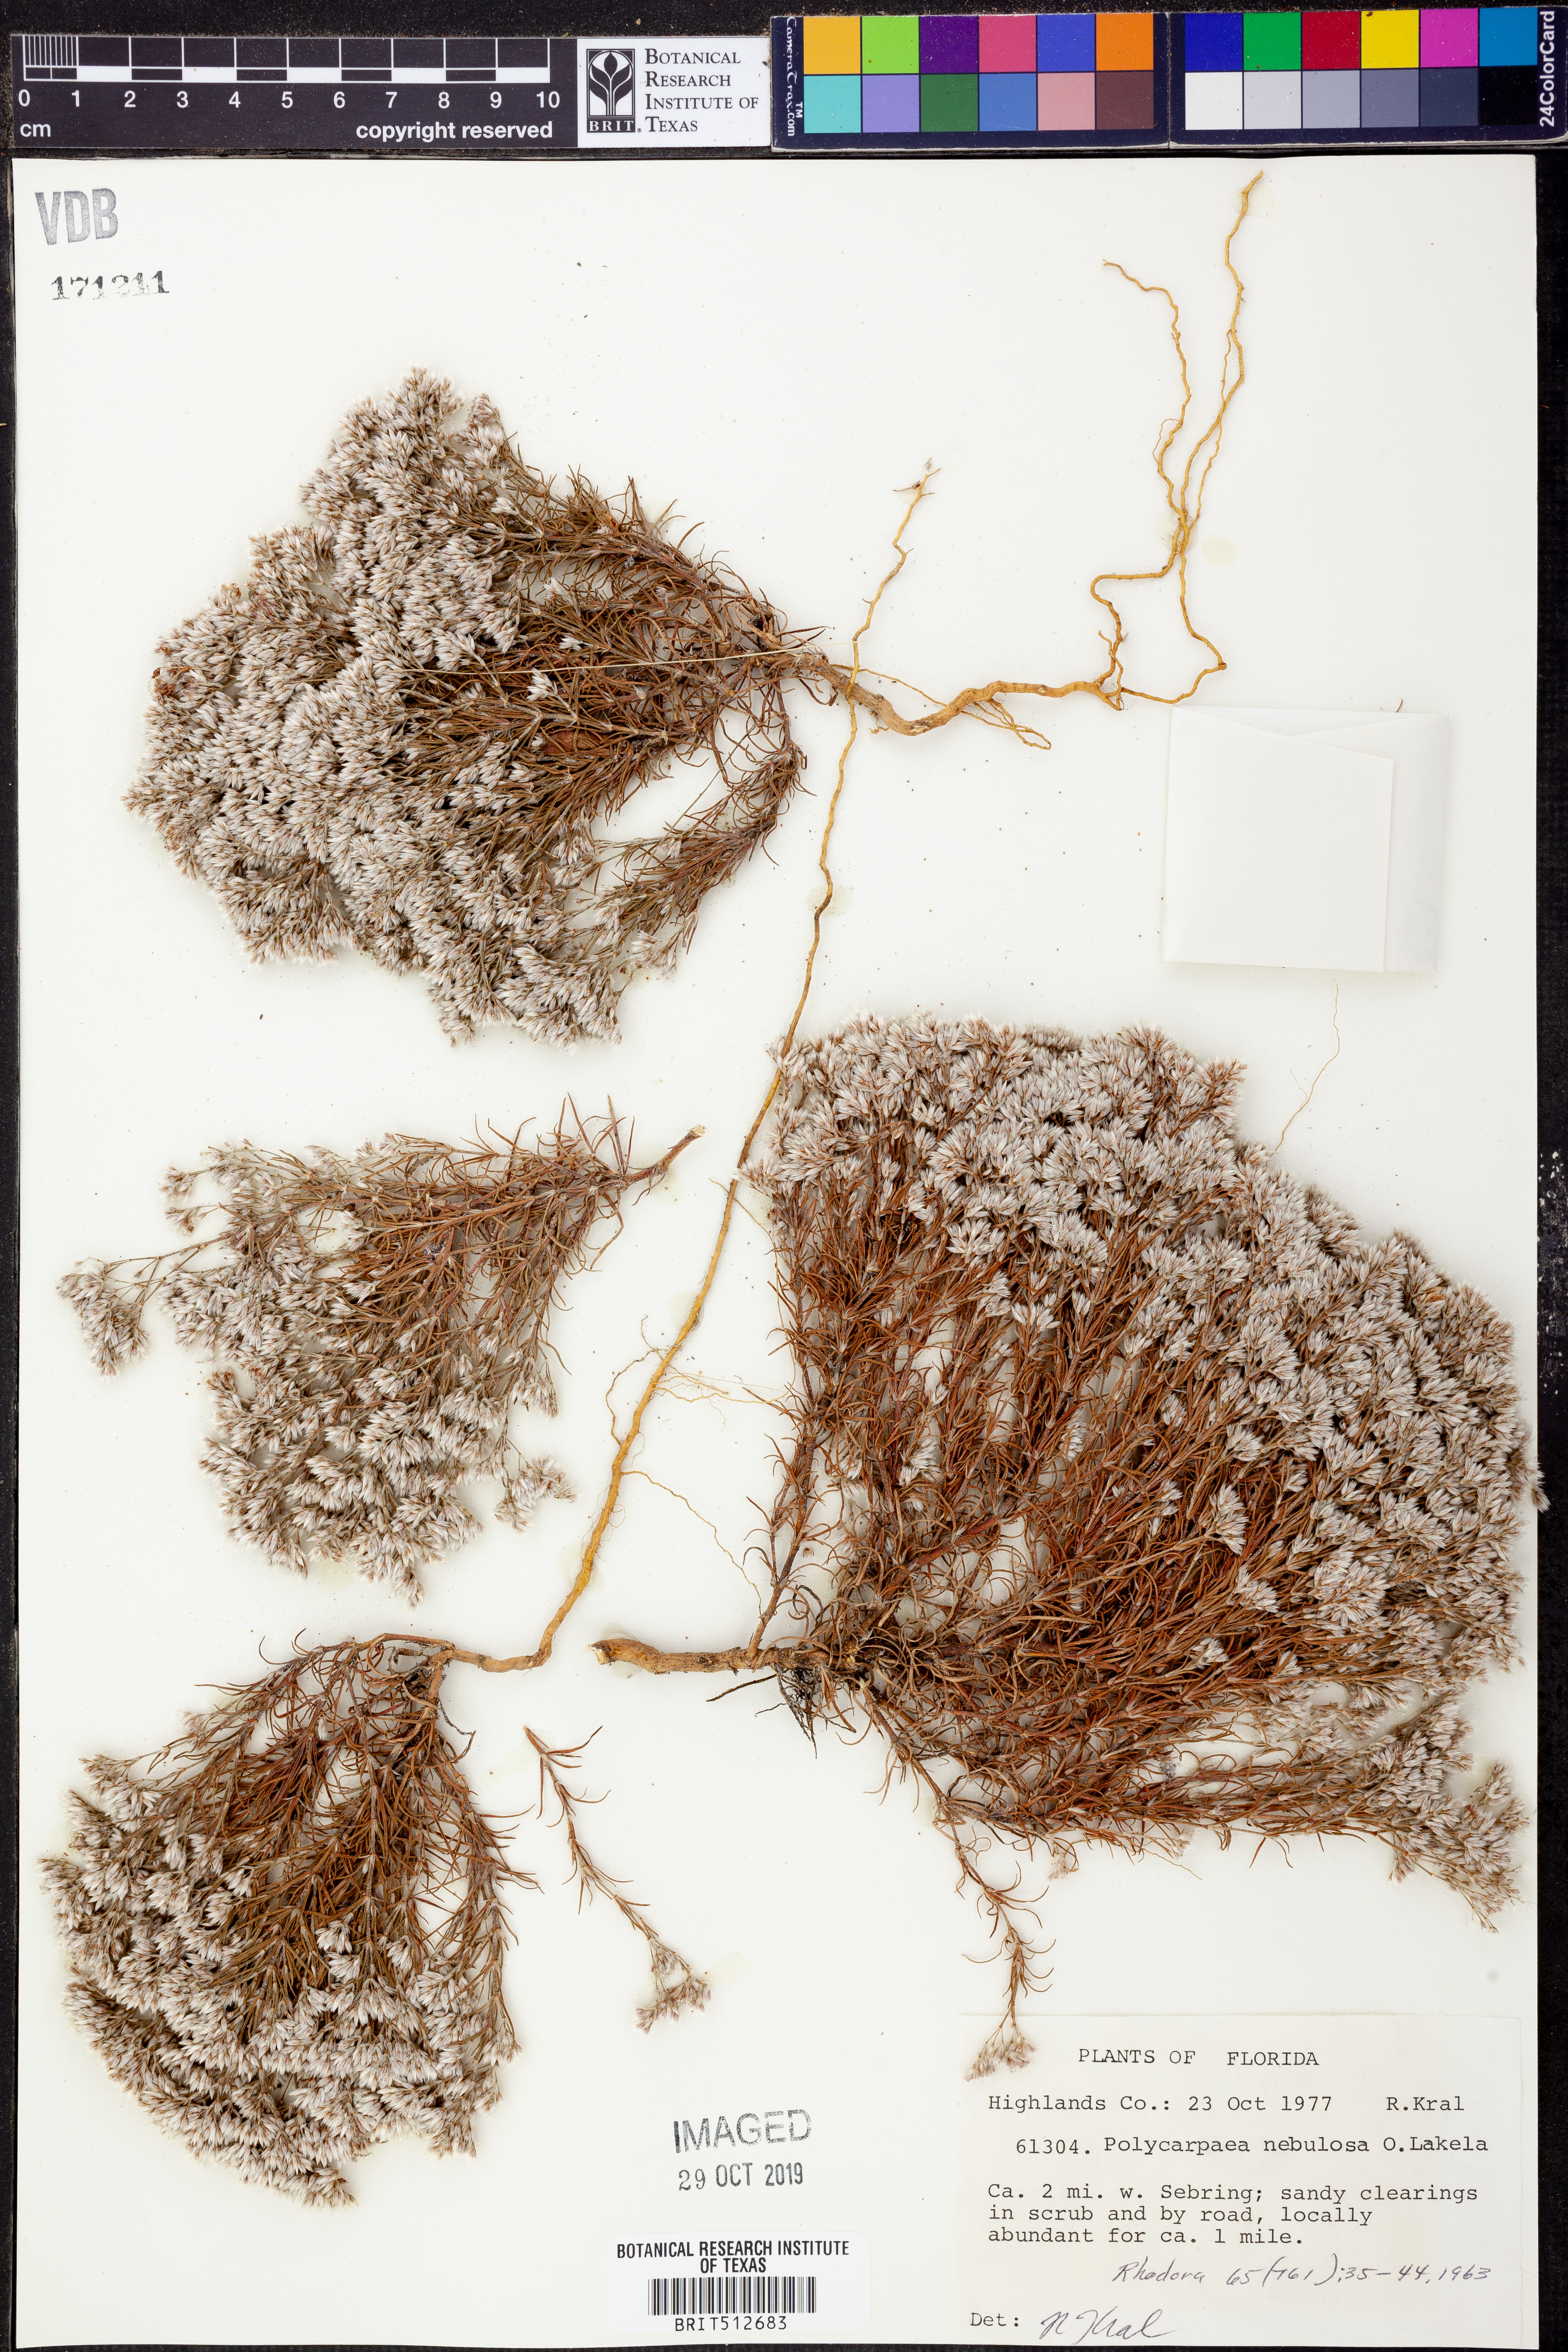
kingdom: Plantae
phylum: Tracheophyta
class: Magnoliopsida
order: Caryophyllales
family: Caryophyllaceae
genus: Polycarpaea
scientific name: Polycarpaea corymbosa
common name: Oldman's cap
